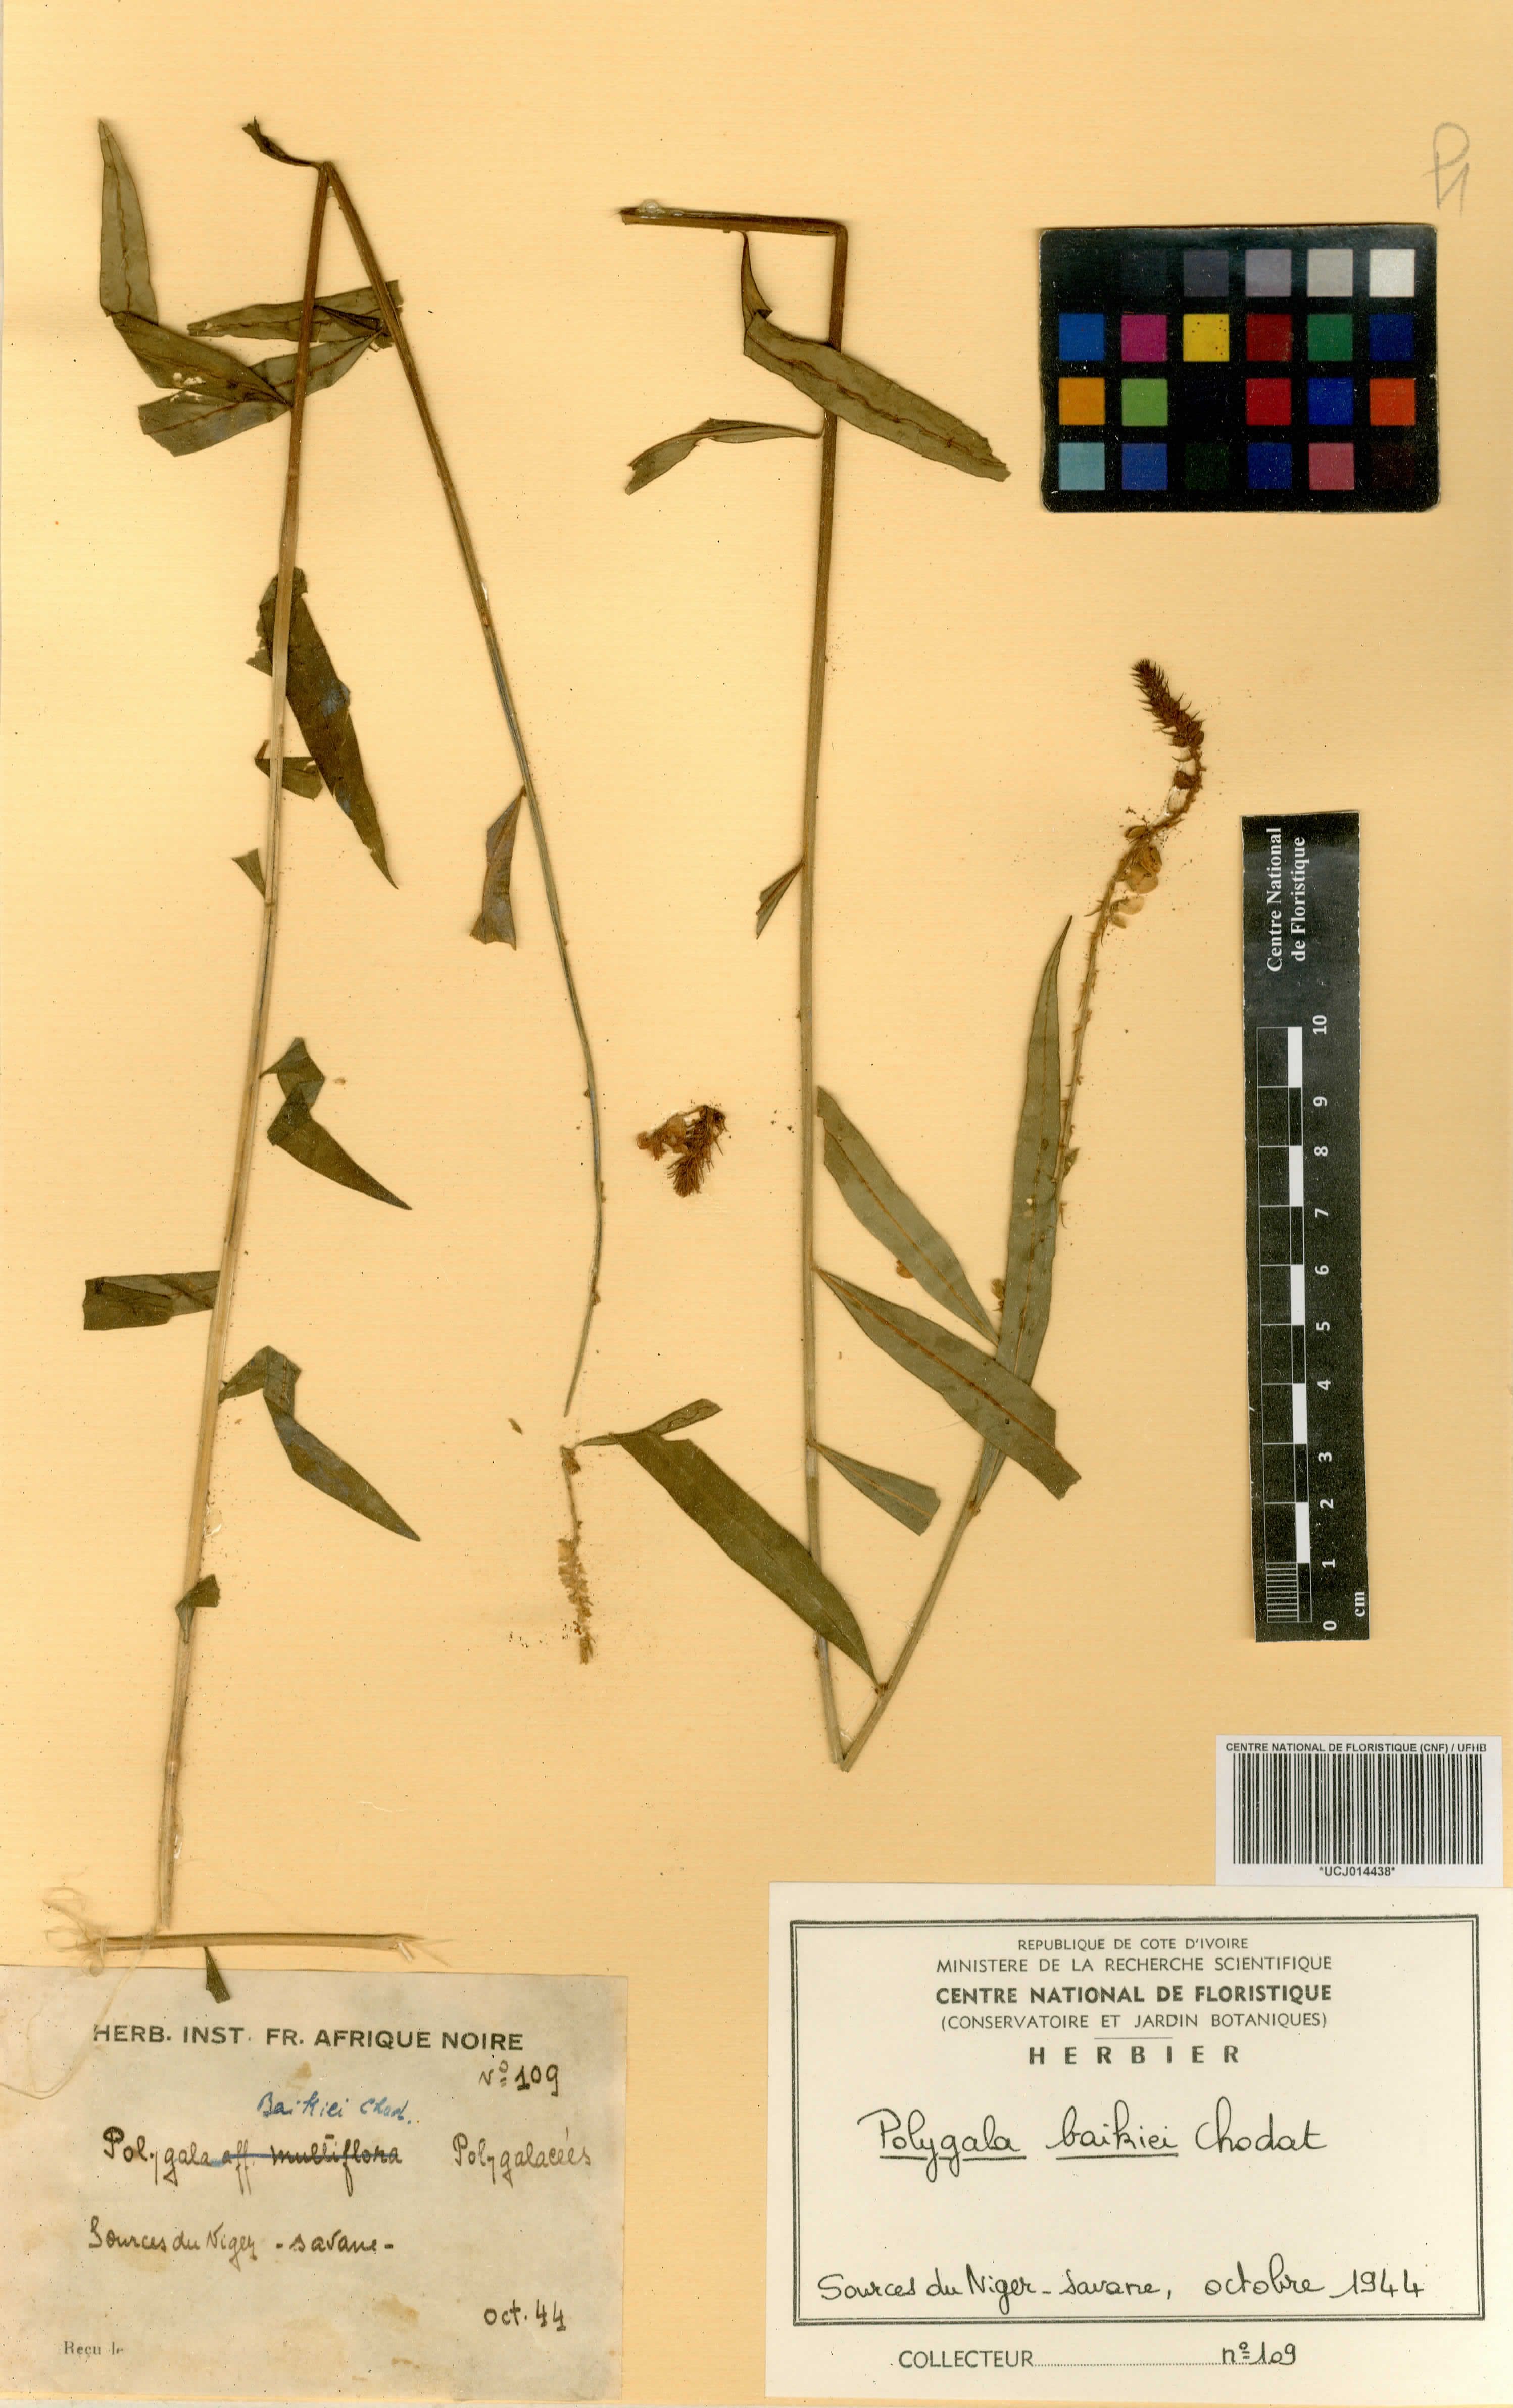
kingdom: Plantae
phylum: Tracheophyta
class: Magnoliopsida
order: Fabales
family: Polygalaceae
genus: Polygala
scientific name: Polygala baikiei
